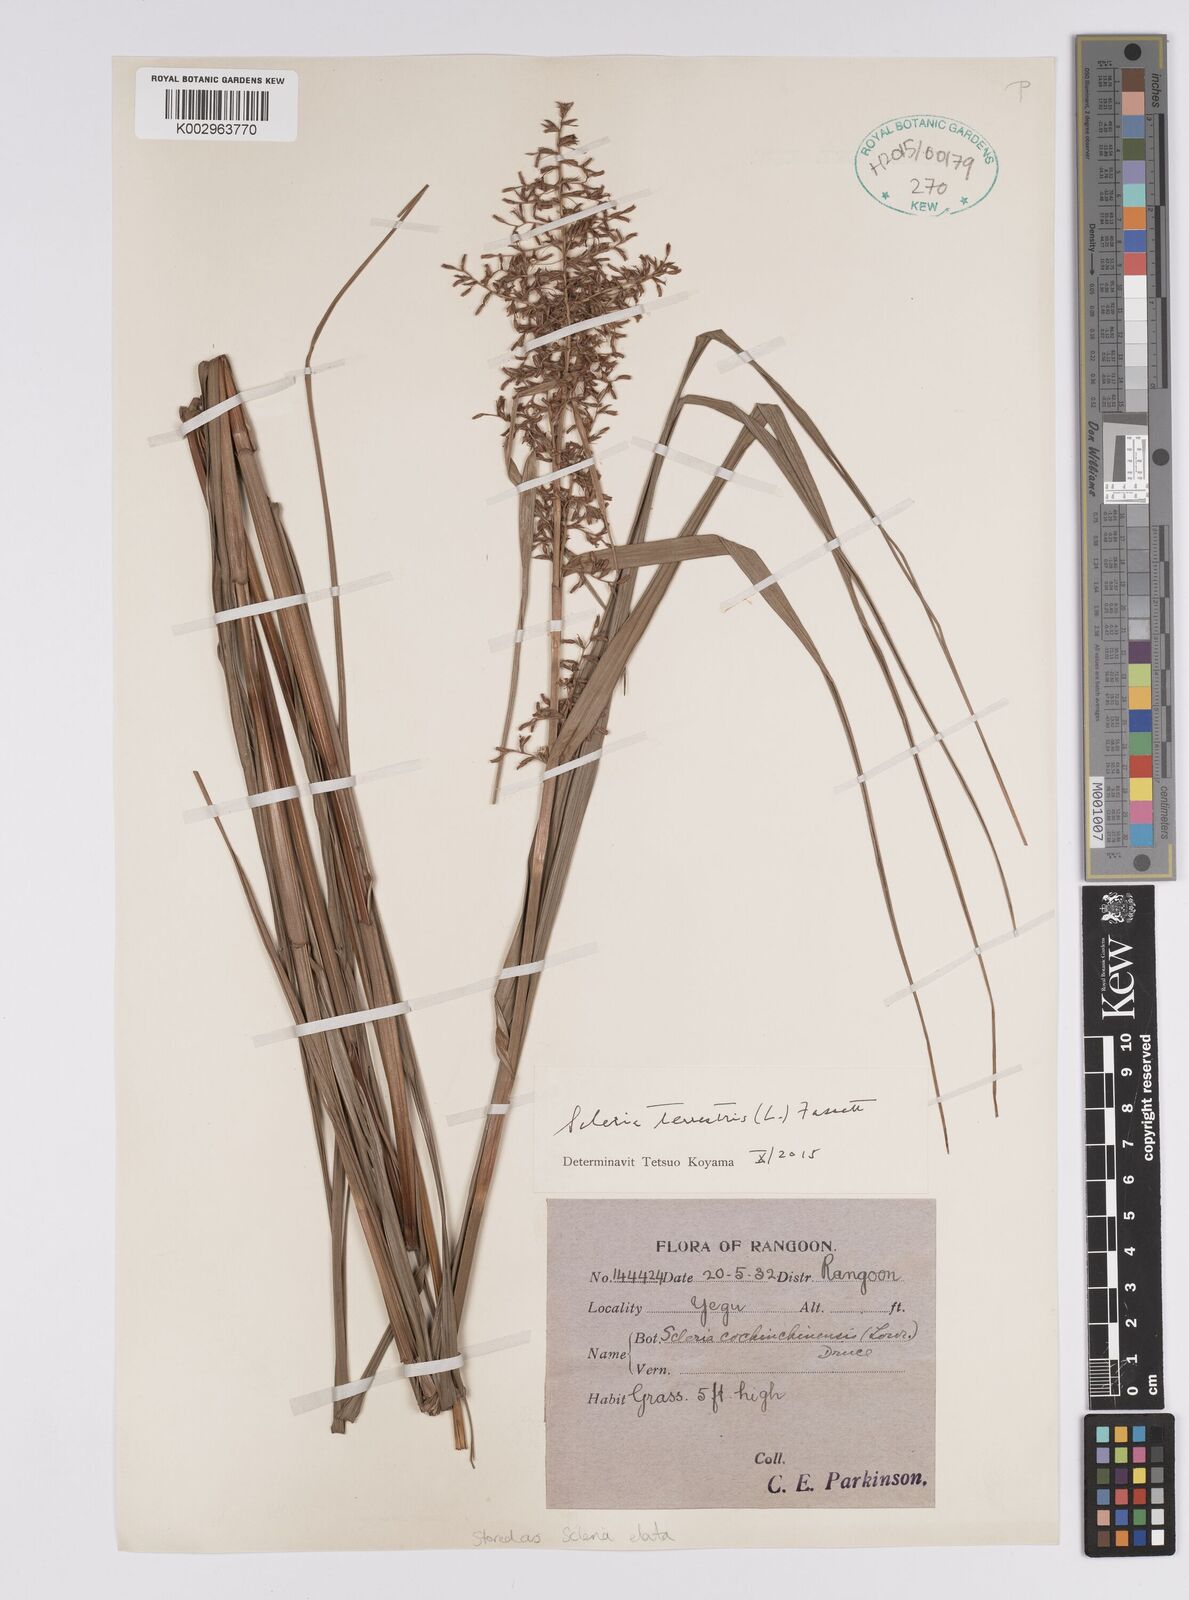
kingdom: Plantae
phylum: Tracheophyta
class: Liliopsida
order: Poales
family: Cyperaceae
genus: Scleria
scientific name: Scleria terrestris
